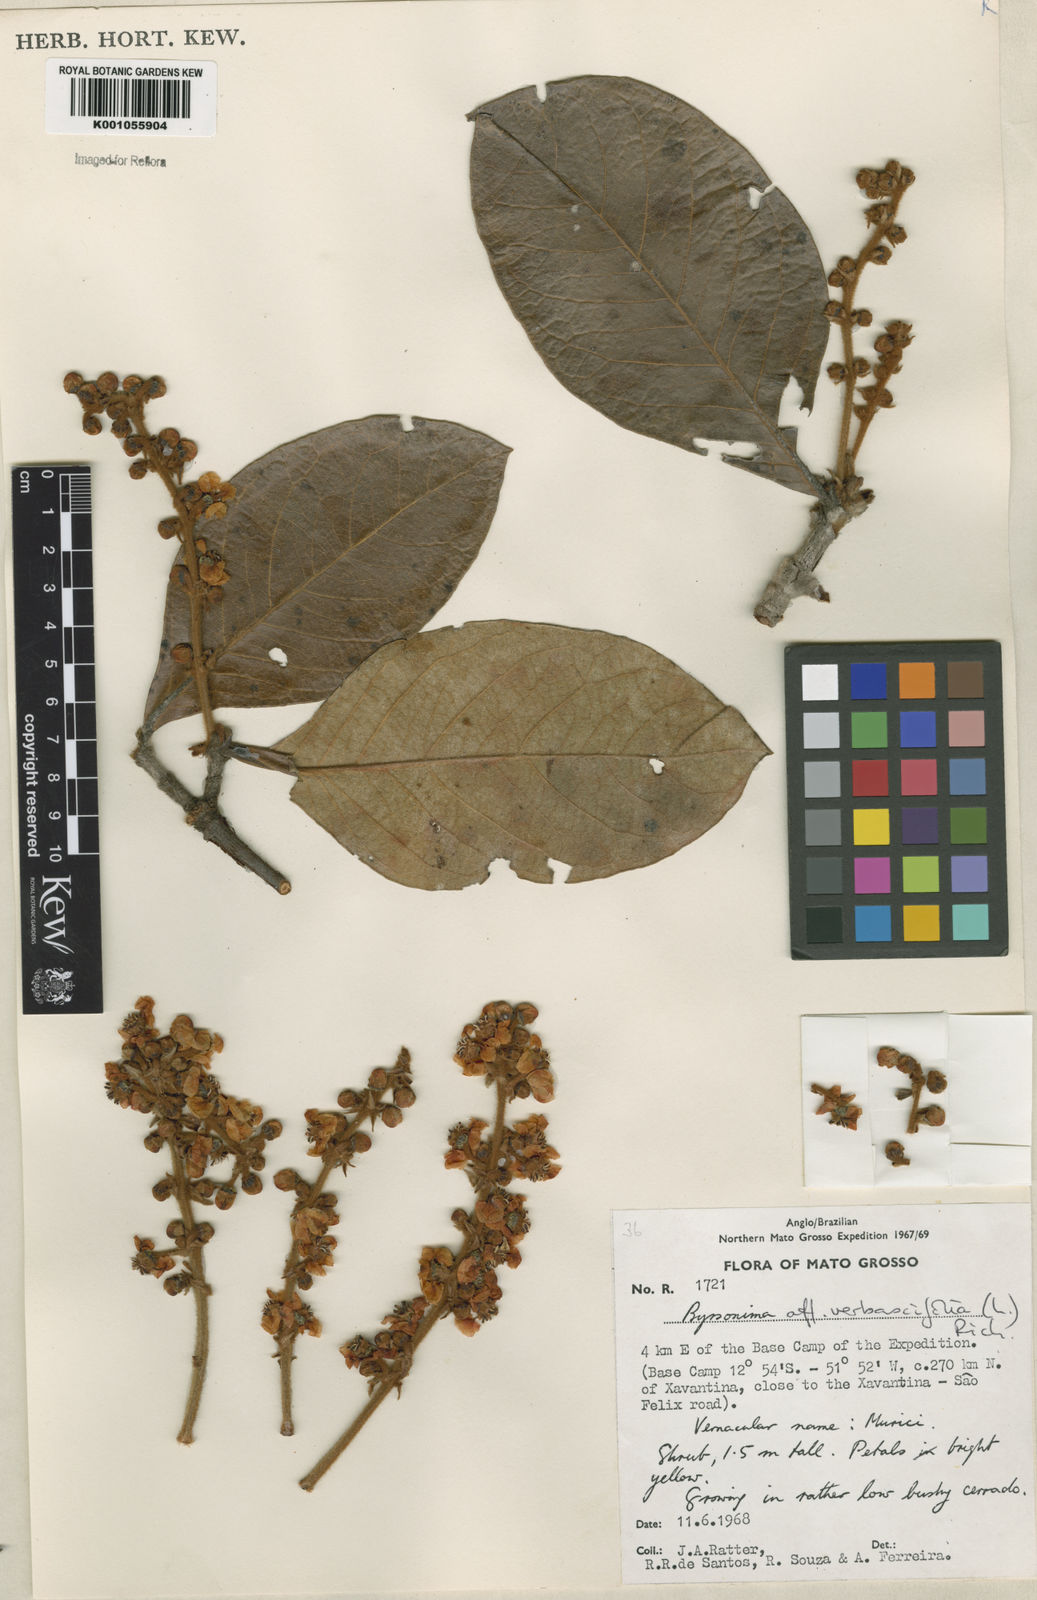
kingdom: Plantae
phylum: Tracheophyta
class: Magnoliopsida
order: Malpighiales
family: Malpighiaceae
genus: Byrsonima
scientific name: Byrsonima verbascifolia
